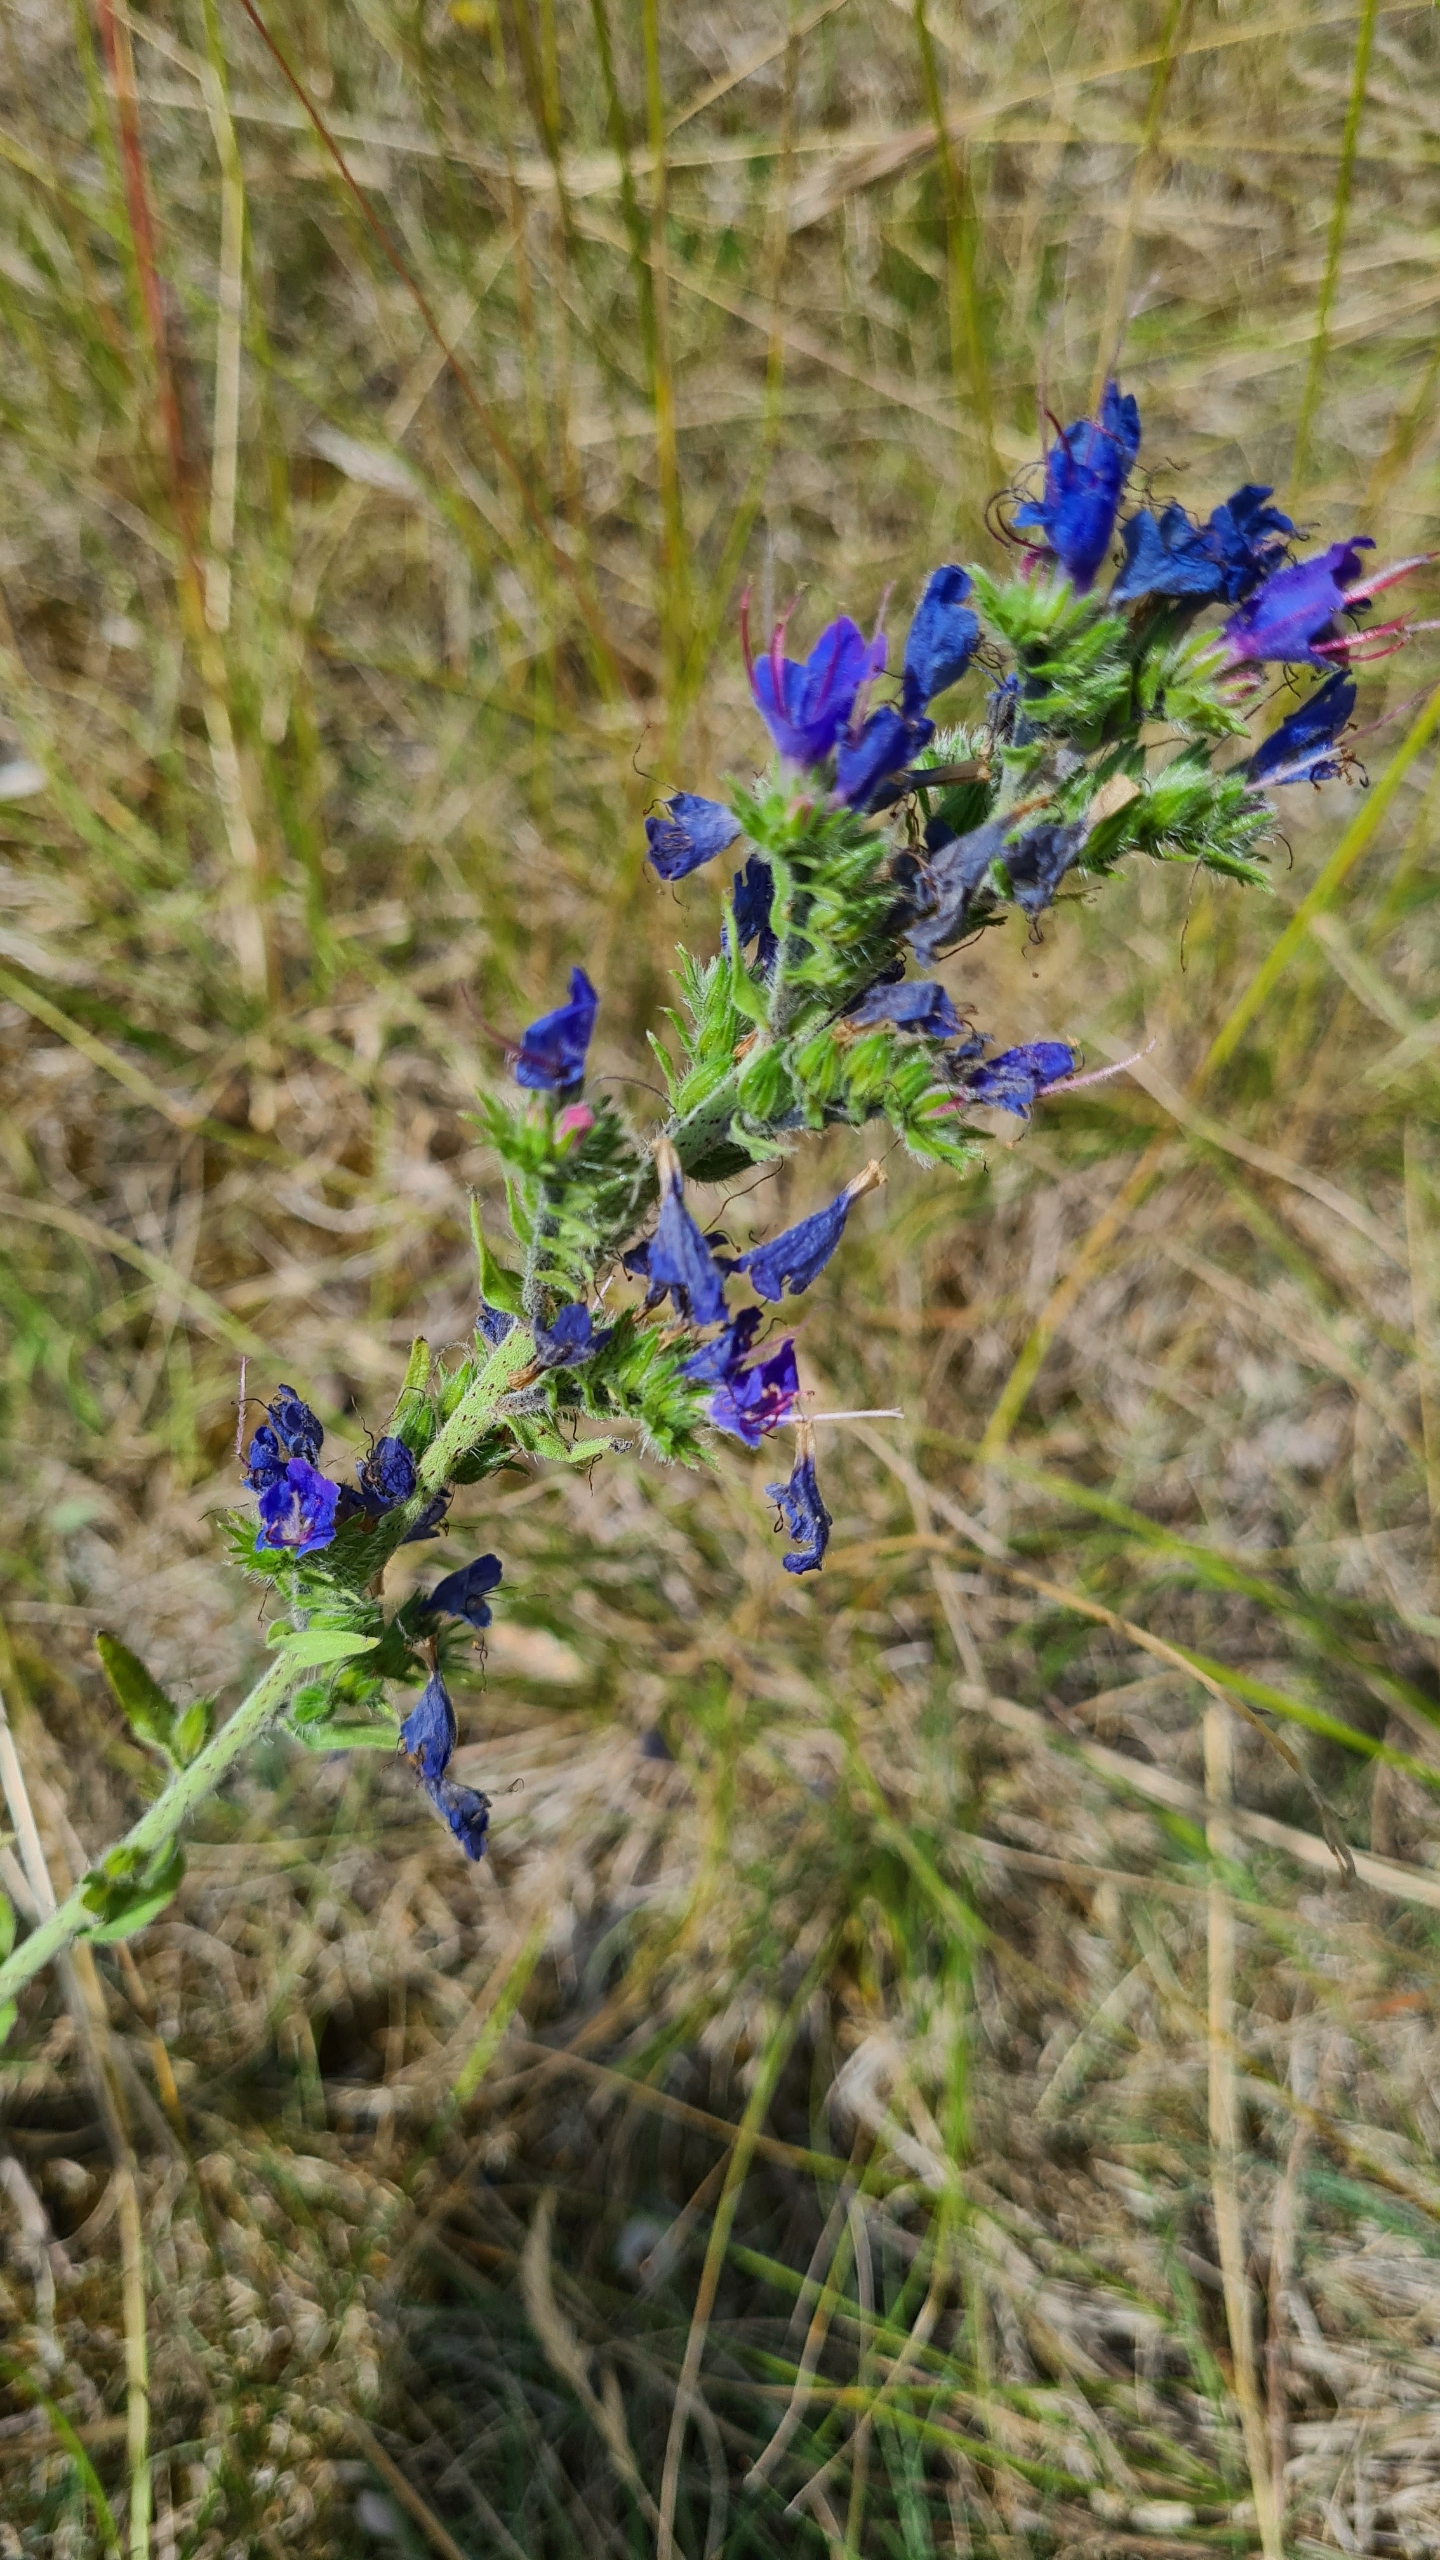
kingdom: Plantae
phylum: Tracheophyta
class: Magnoliopsida
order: Boraginales
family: Boraginaceae
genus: Echium
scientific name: Echium vulgare
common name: Slangehoved
